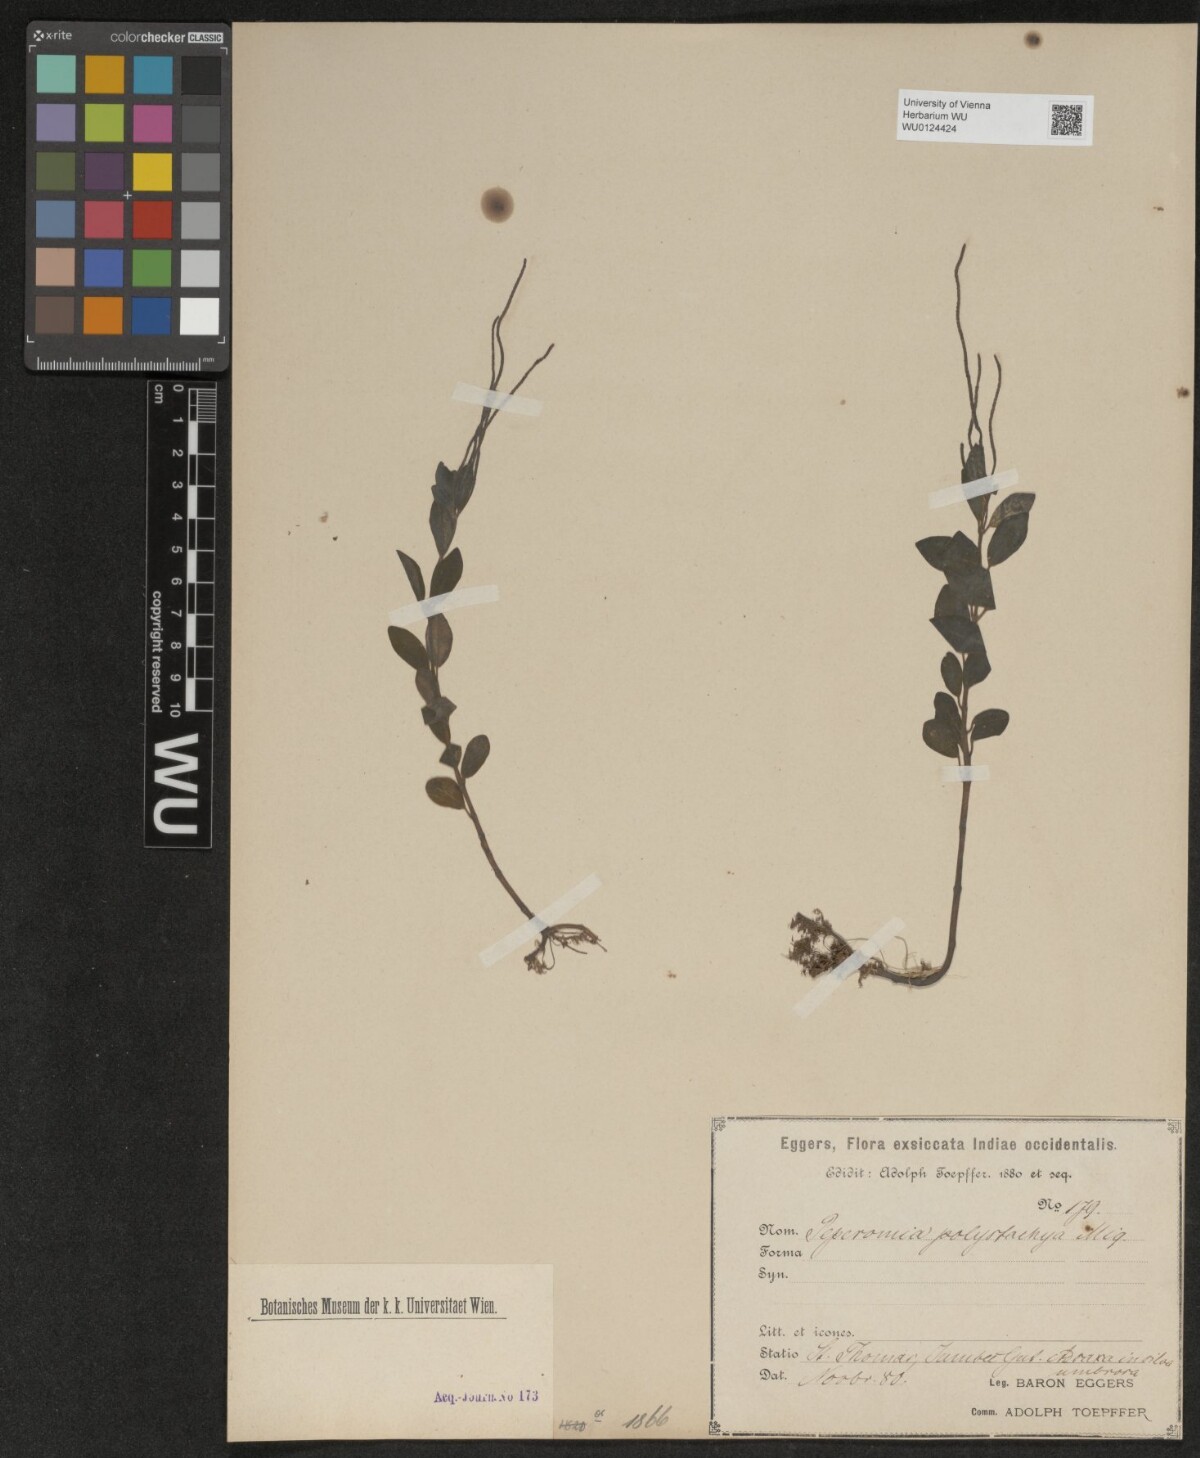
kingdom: Plantae
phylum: Tracheophyta
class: Magnoliopsida
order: Piperales
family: Piperaceae
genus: Peperomia
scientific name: Peperomia polystachya
